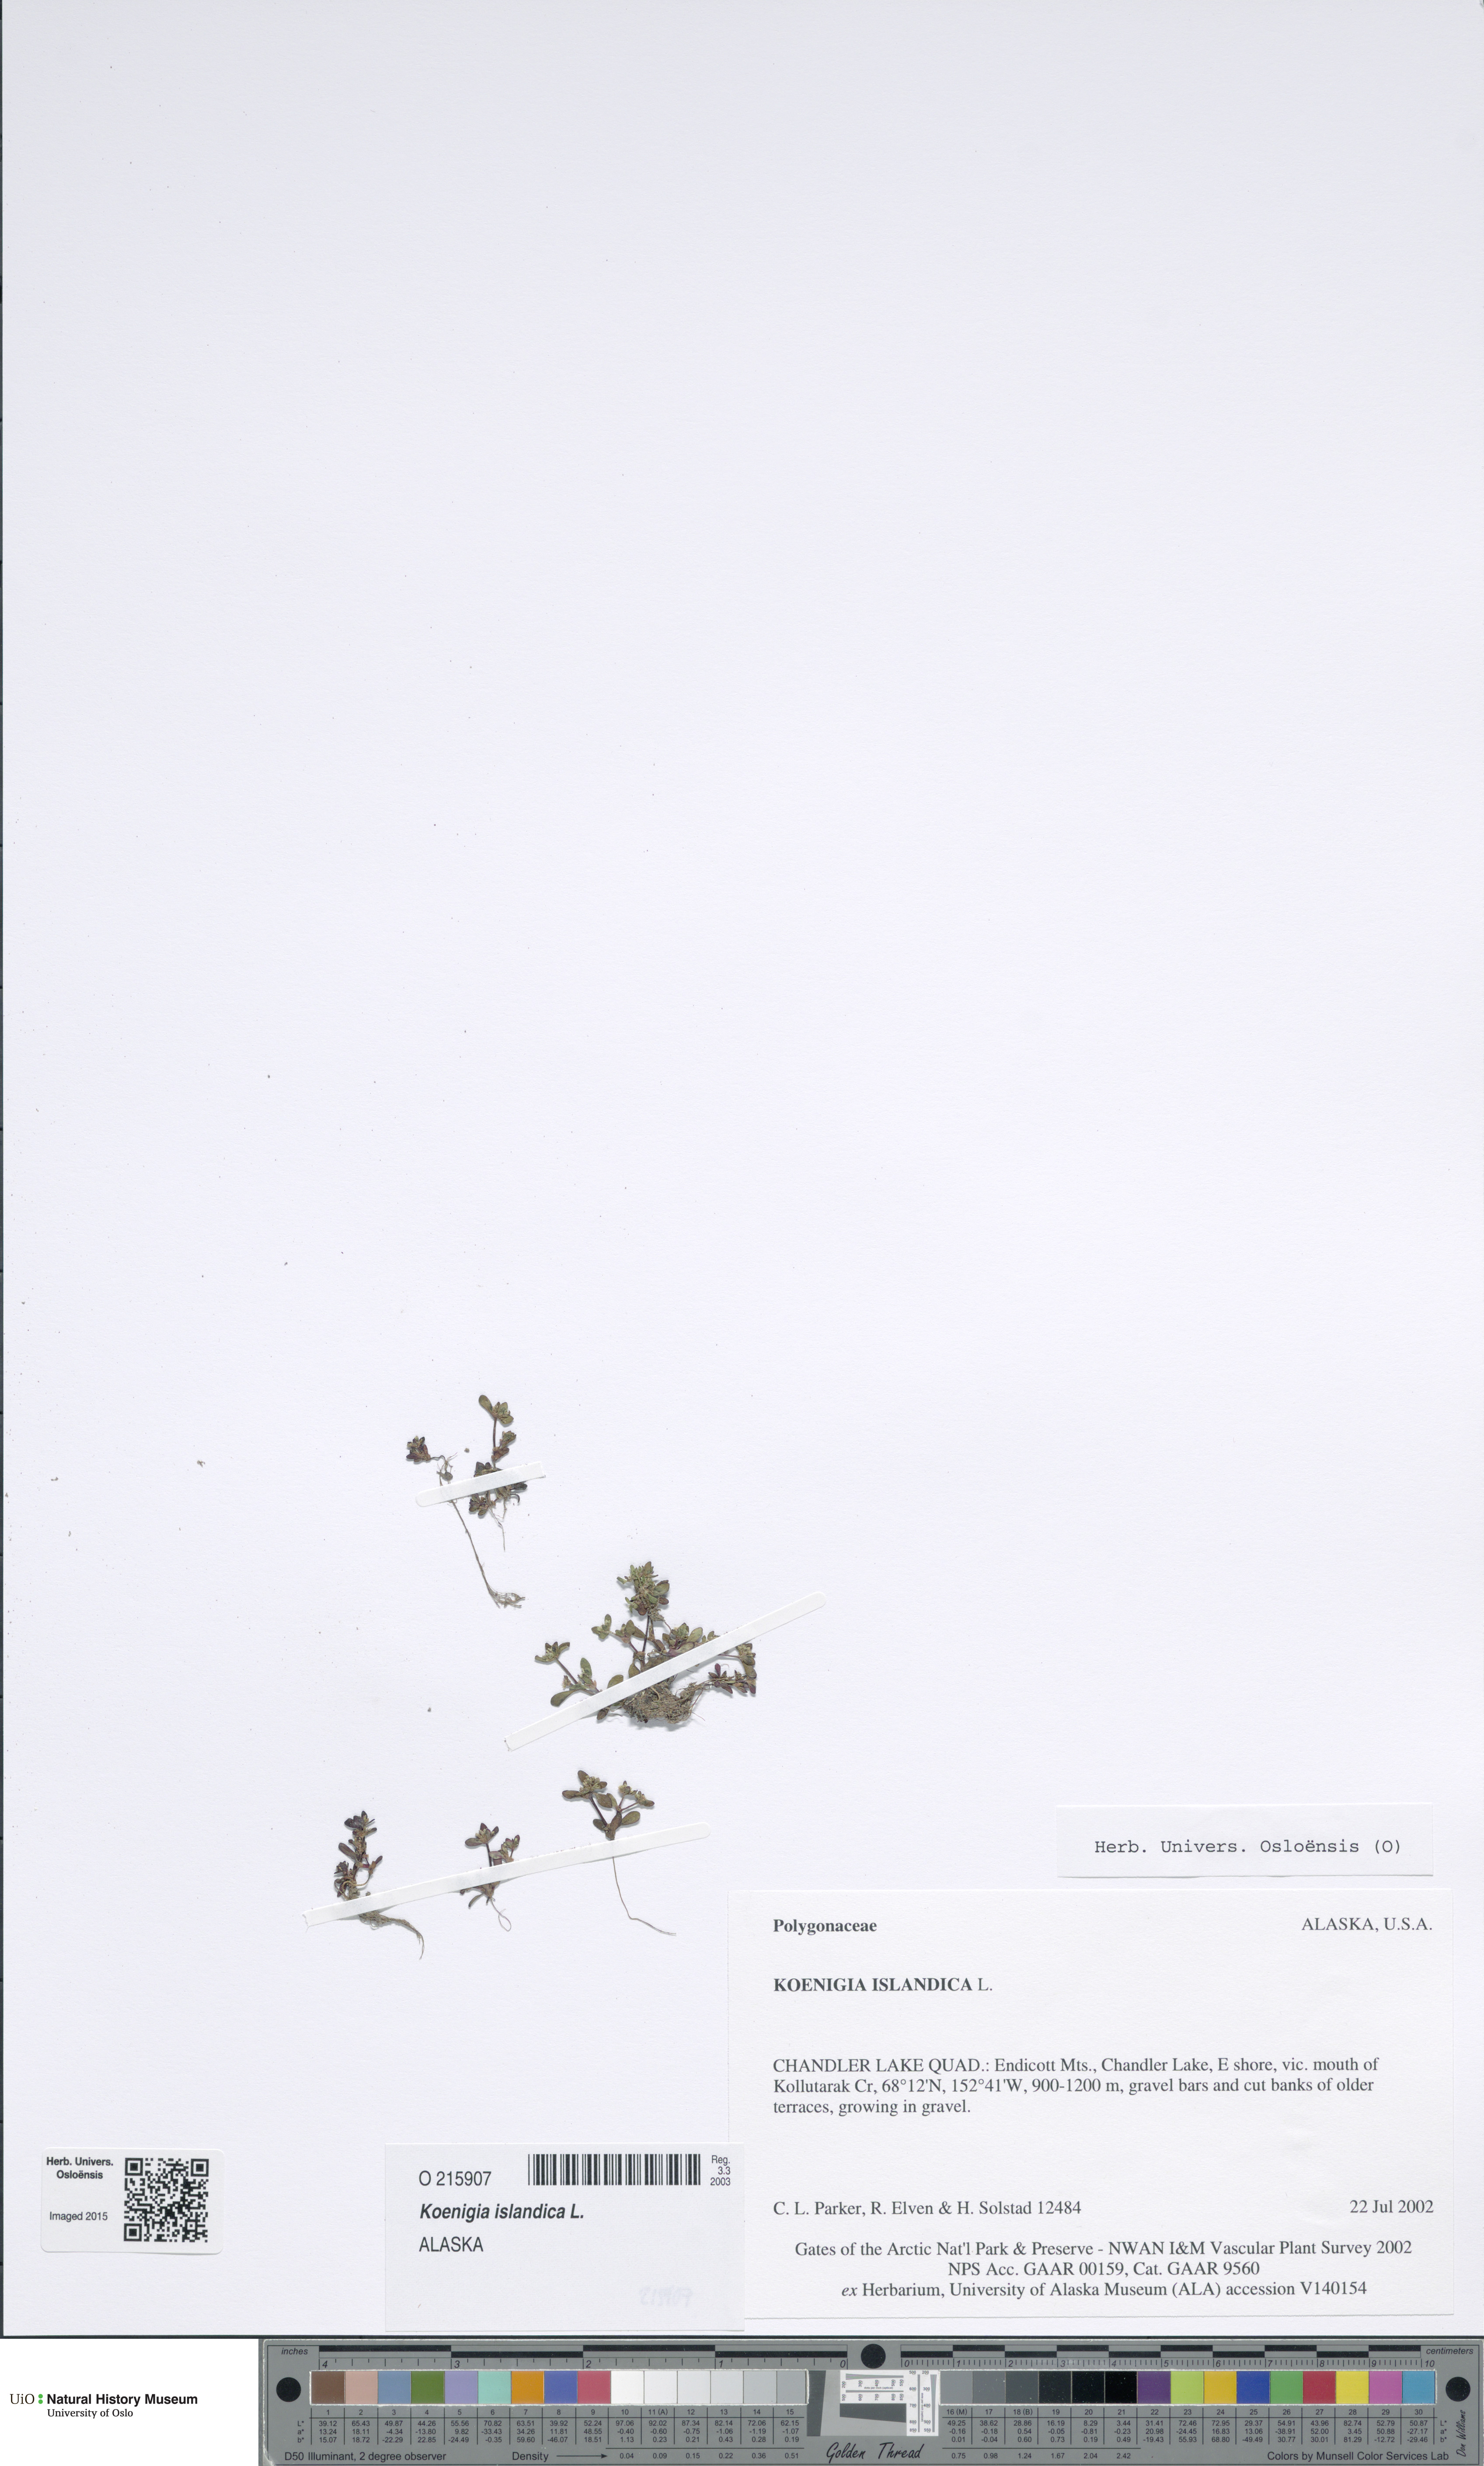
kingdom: Plantae
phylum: Tracheophyta
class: Magnoliopsida
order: Caryophyllales
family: Polygonaceae
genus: Koenigia
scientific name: Koenigia islandica
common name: Iceland-purslane
